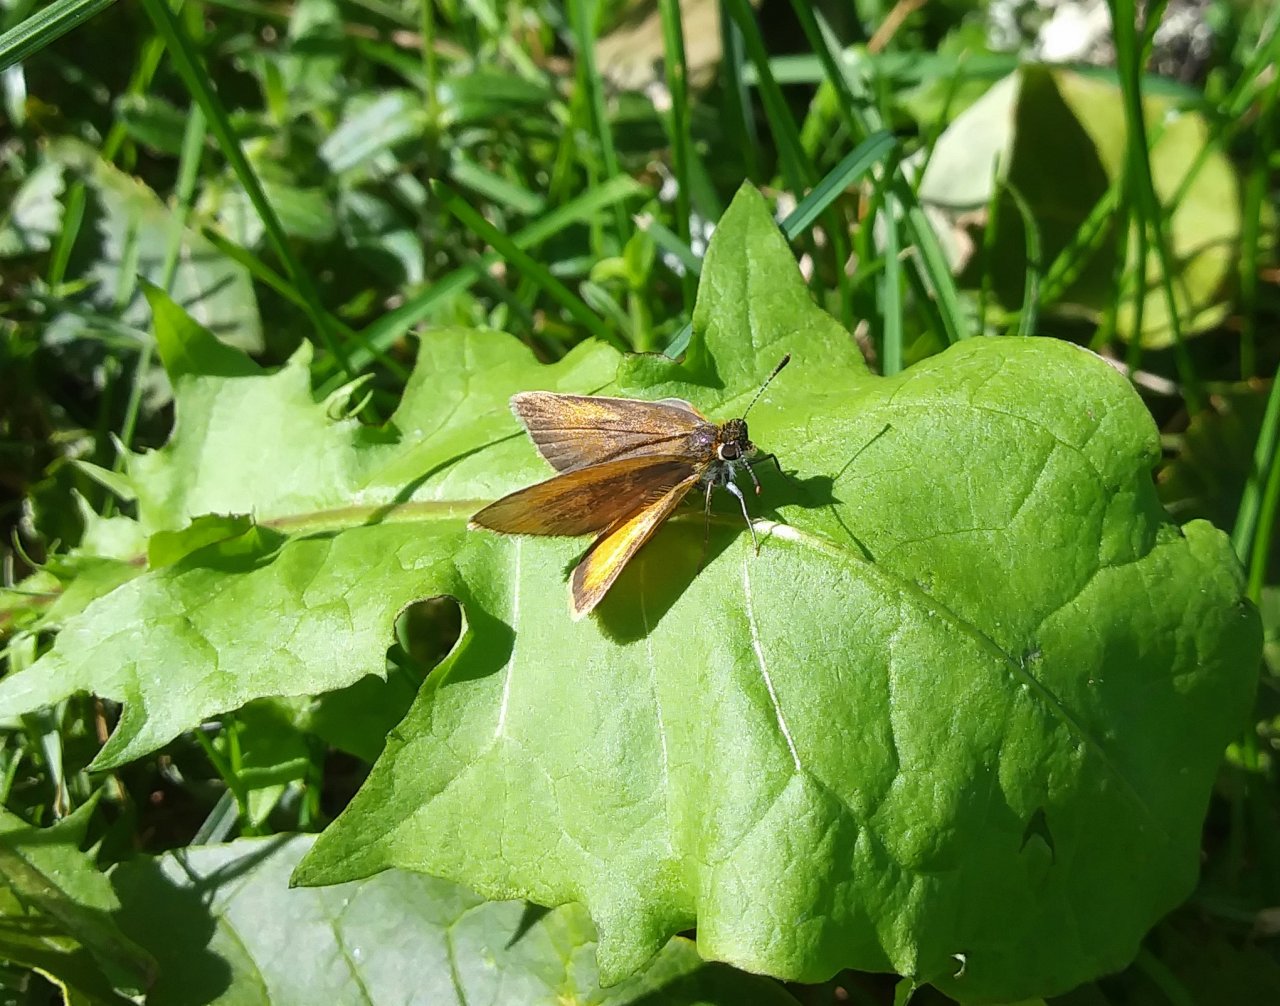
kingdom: Animalia
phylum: Arthropoda
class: Insecta
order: Lepidoptera
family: Hesperiidae
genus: Ancyloxypha
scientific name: Ancyloxypha numitor
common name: Least Skipper
